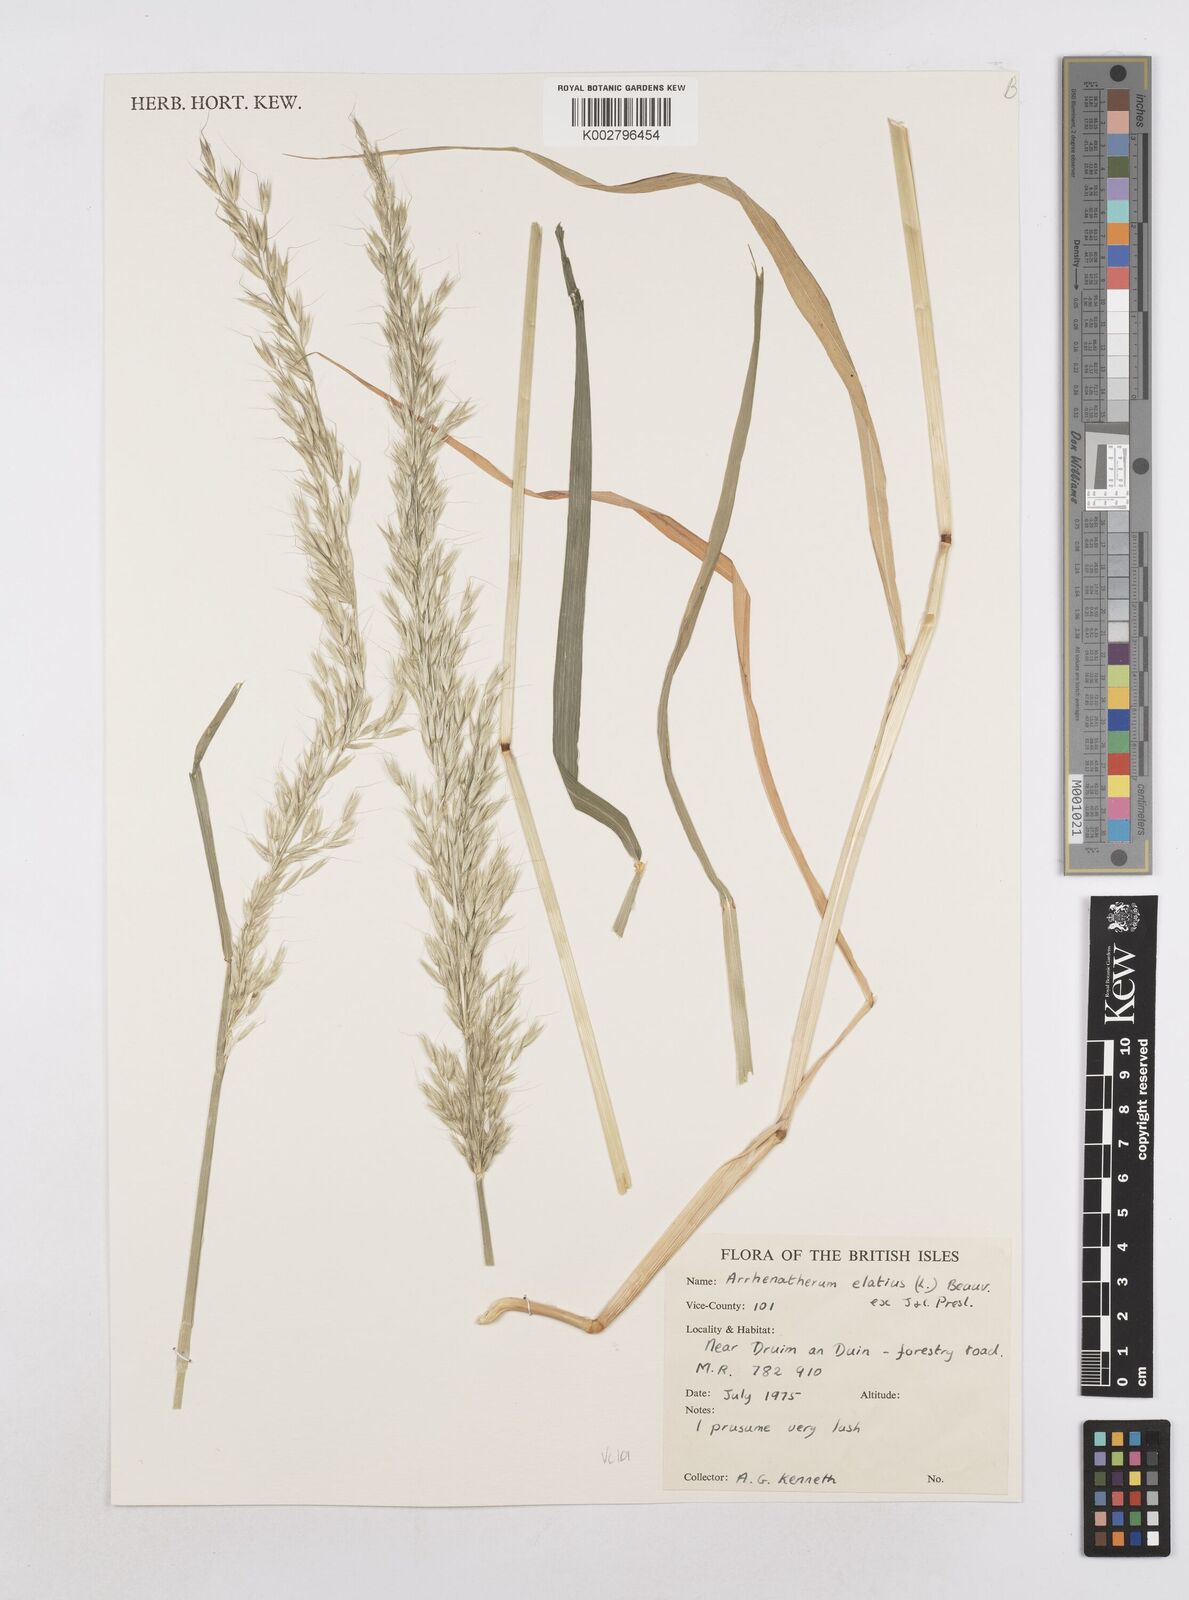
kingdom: Plantae
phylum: Tracheophyta
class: Liliopsida
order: Poales
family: Poaceae
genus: Arrhenatherum
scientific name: Arrhenatherum elatius
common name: Tall oatgrass
